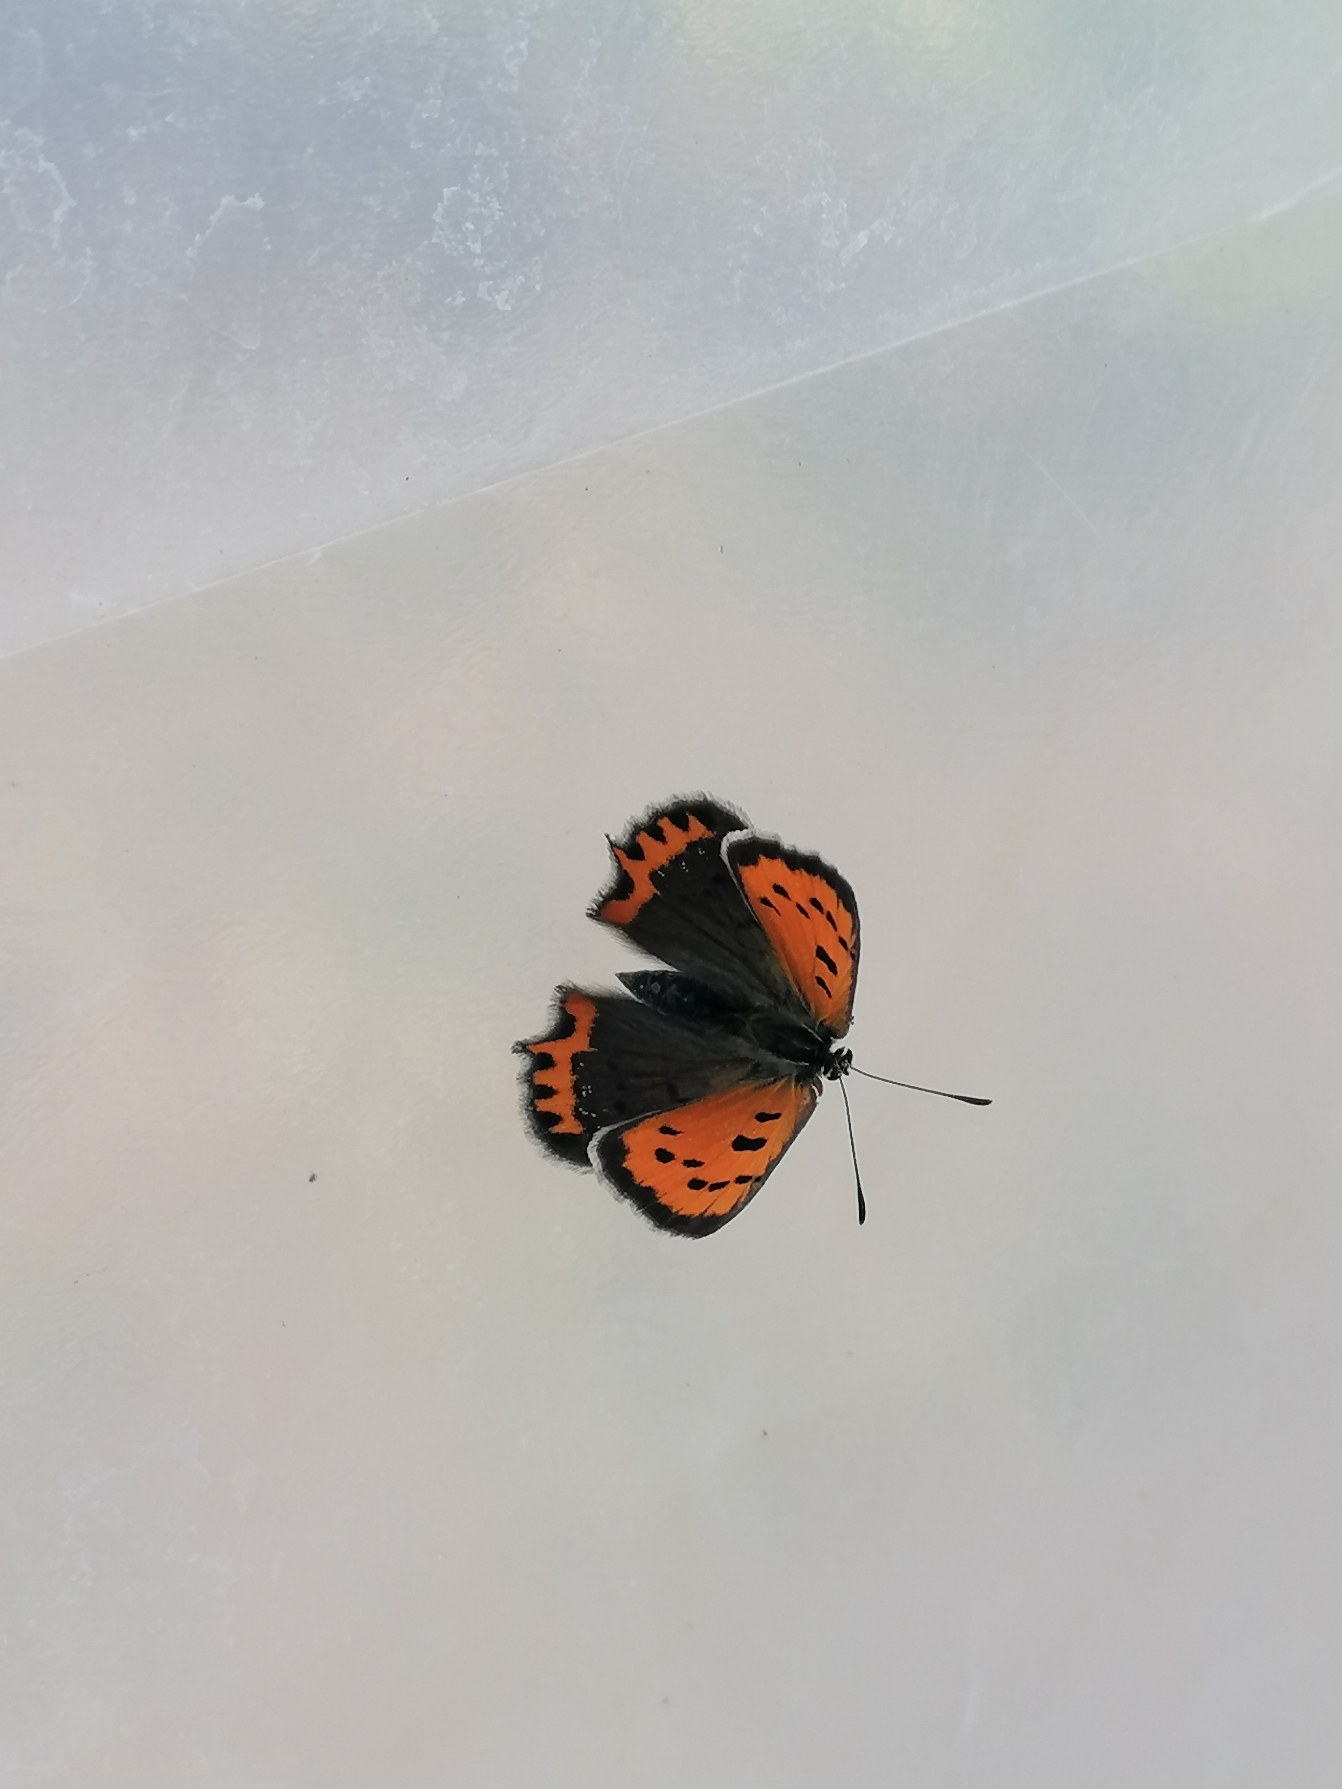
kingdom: Animalia
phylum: Arthropoda
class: Insecta
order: Lepidoptera
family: Lycaenidae
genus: Lycaena
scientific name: Lycaena phlaeas
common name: Lille ildfugl
